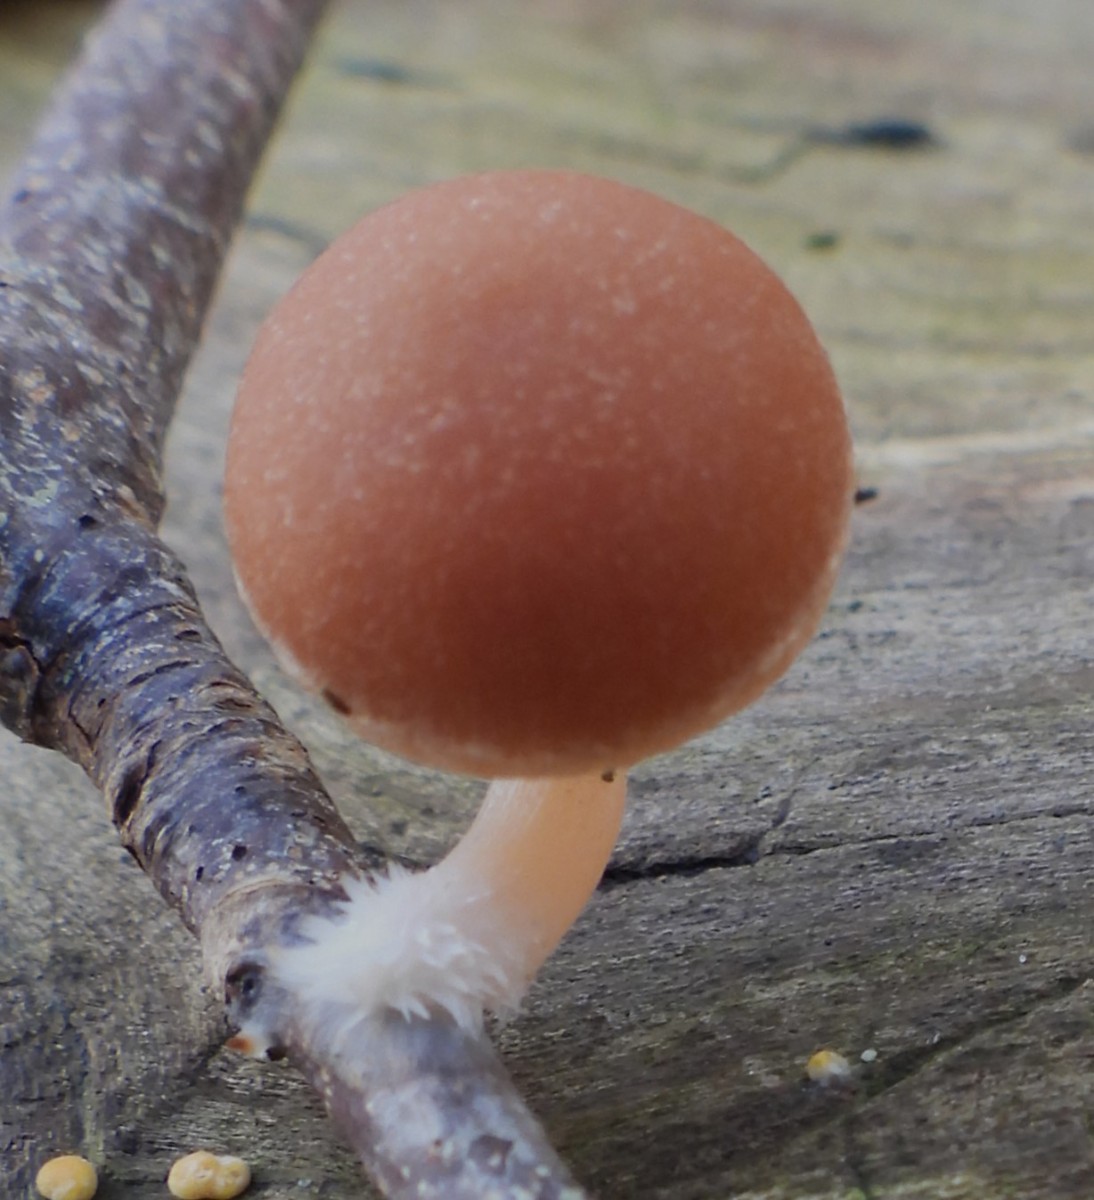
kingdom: Fungi
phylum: Basidiomycota
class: Agaricomycetes
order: Agaricales
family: Tubariaceae
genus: Tubaria
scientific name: Tubaria furfuracea
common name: kliddet fnughat
